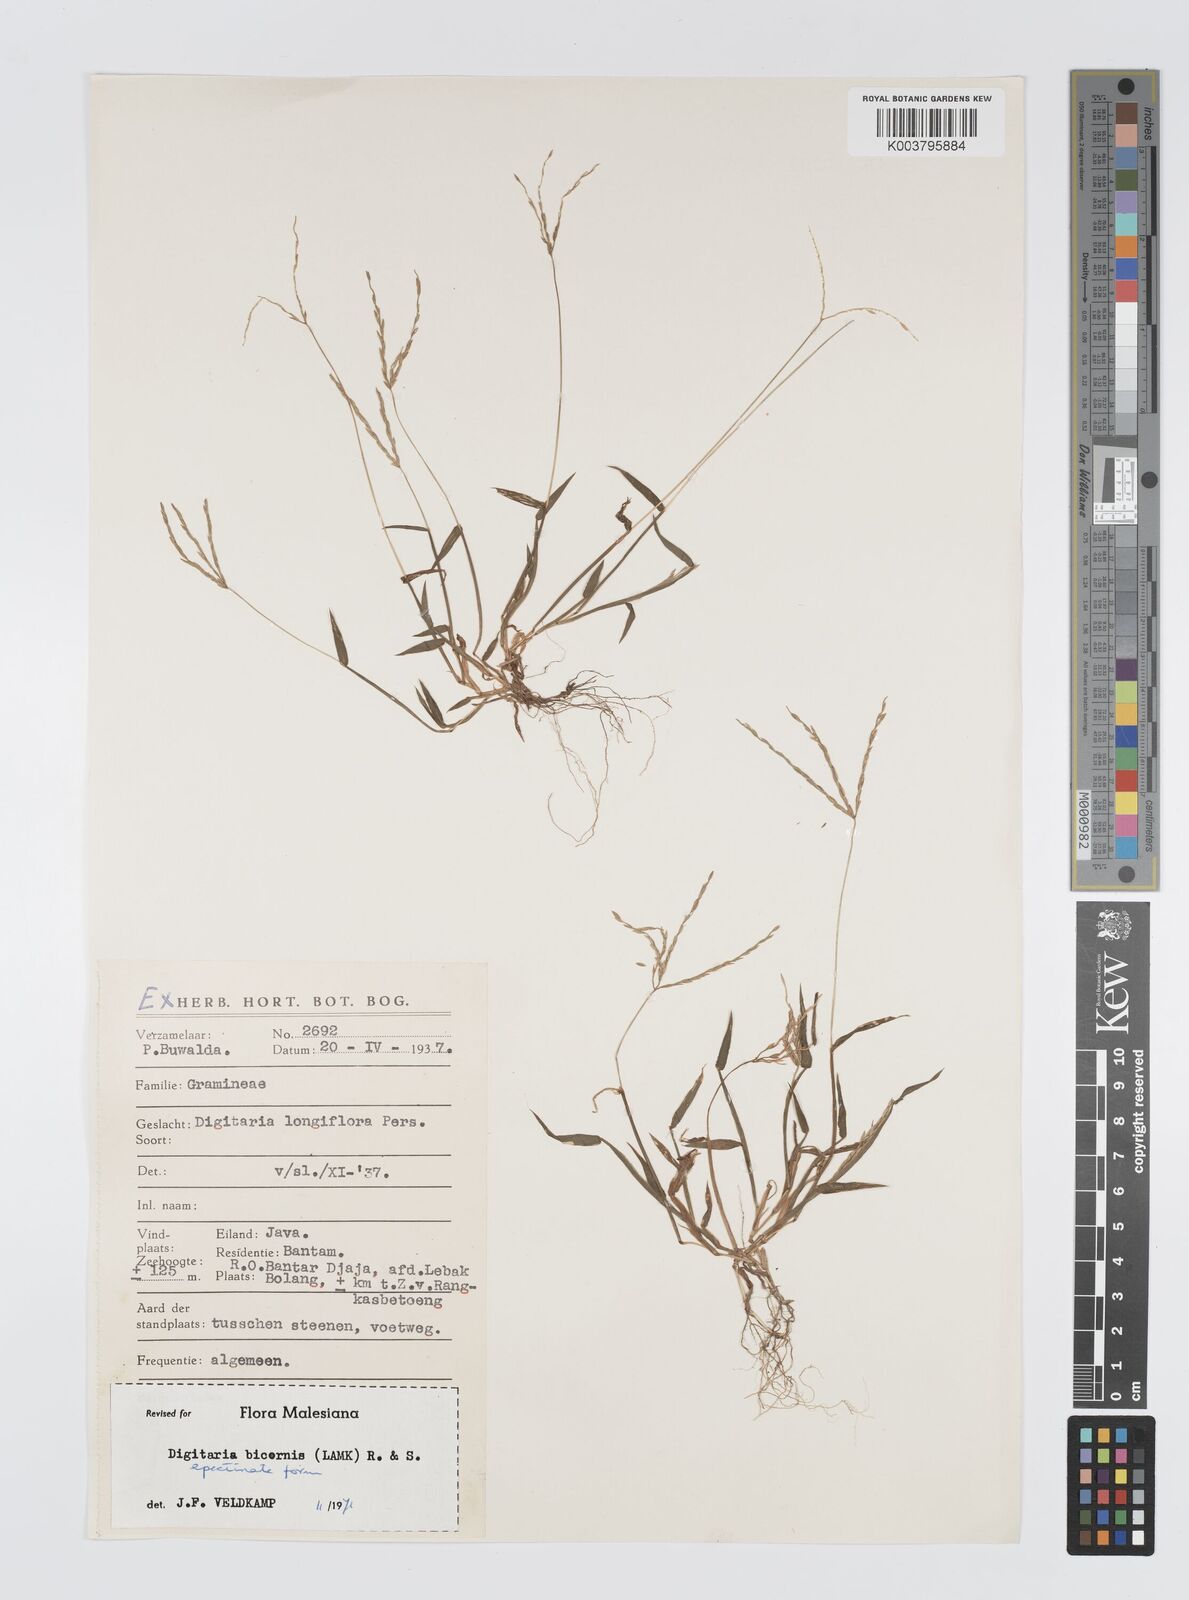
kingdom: Plantae
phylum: Tracheophyta
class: Liliopsida
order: Poales
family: Poaceae
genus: Digitaria
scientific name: Digitaria ciliaris
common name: Tropical finger-grass
